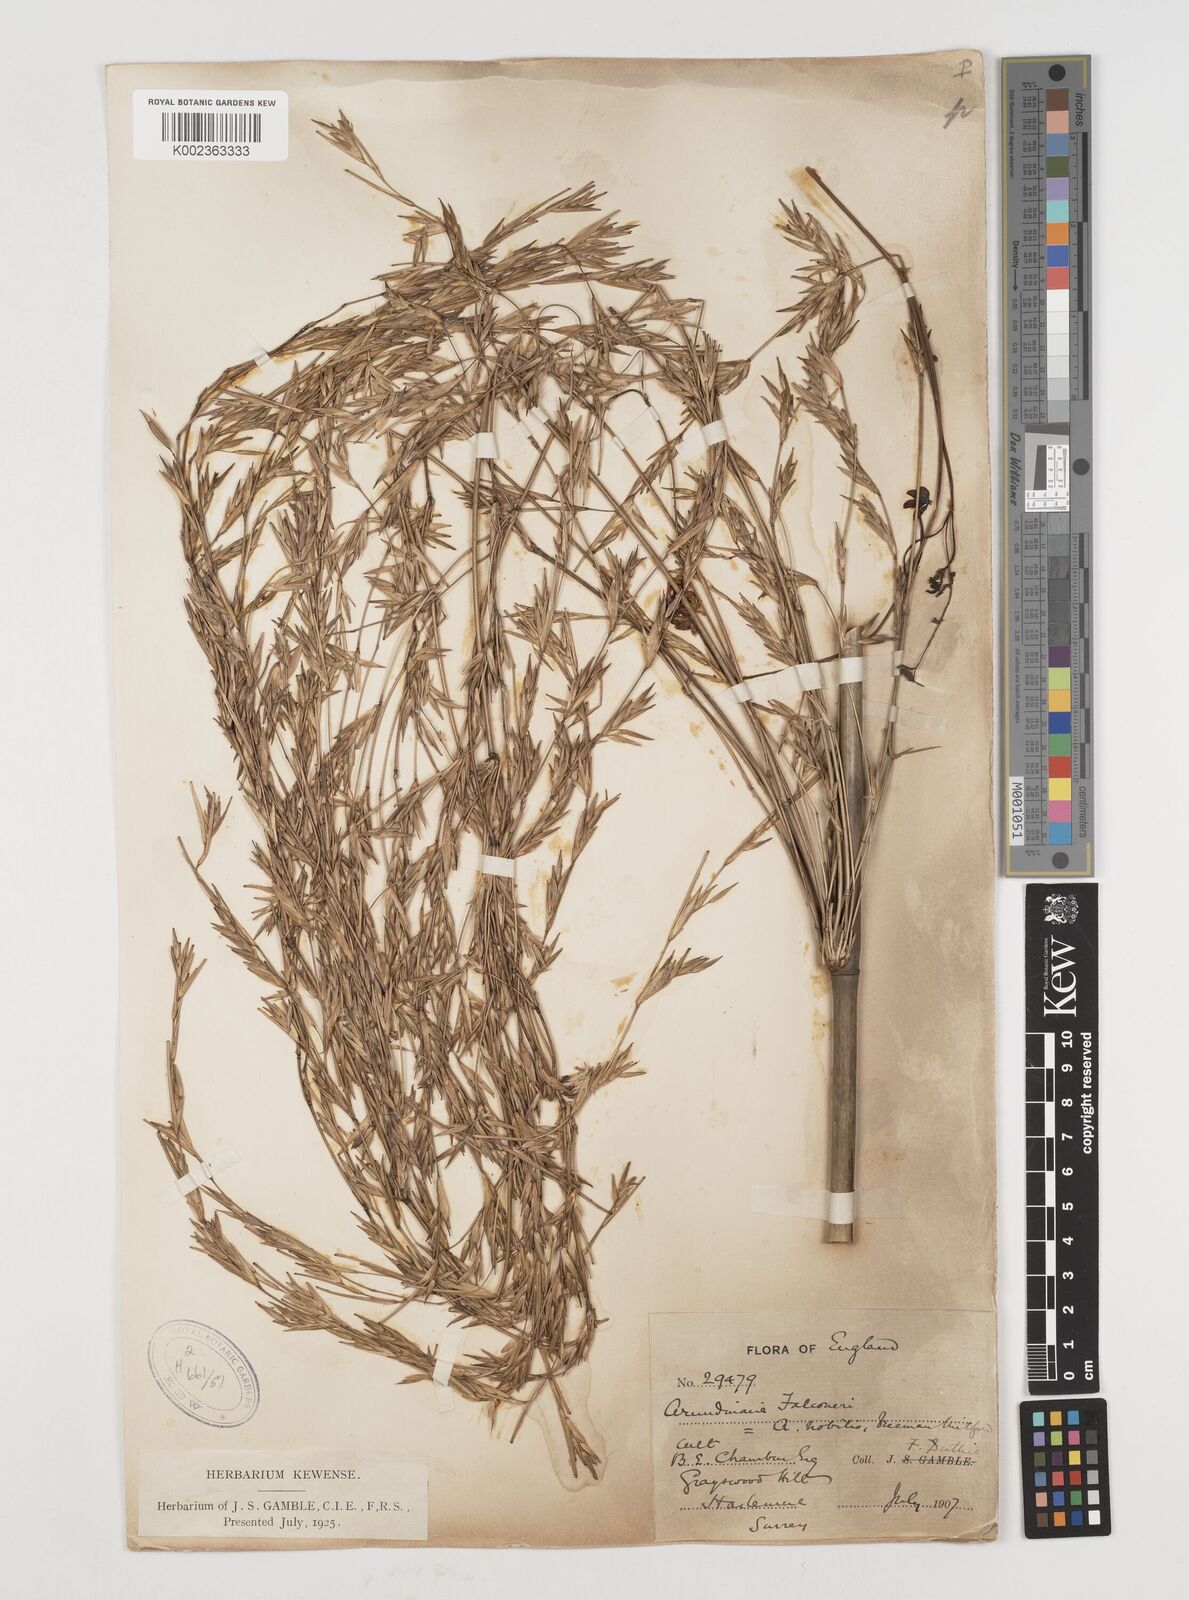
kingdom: Plantae
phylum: Tracheophyta
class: Liliopsida
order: Poales
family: Poaceae
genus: Himalayacalamus
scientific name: Himalayacalamus falconeri
